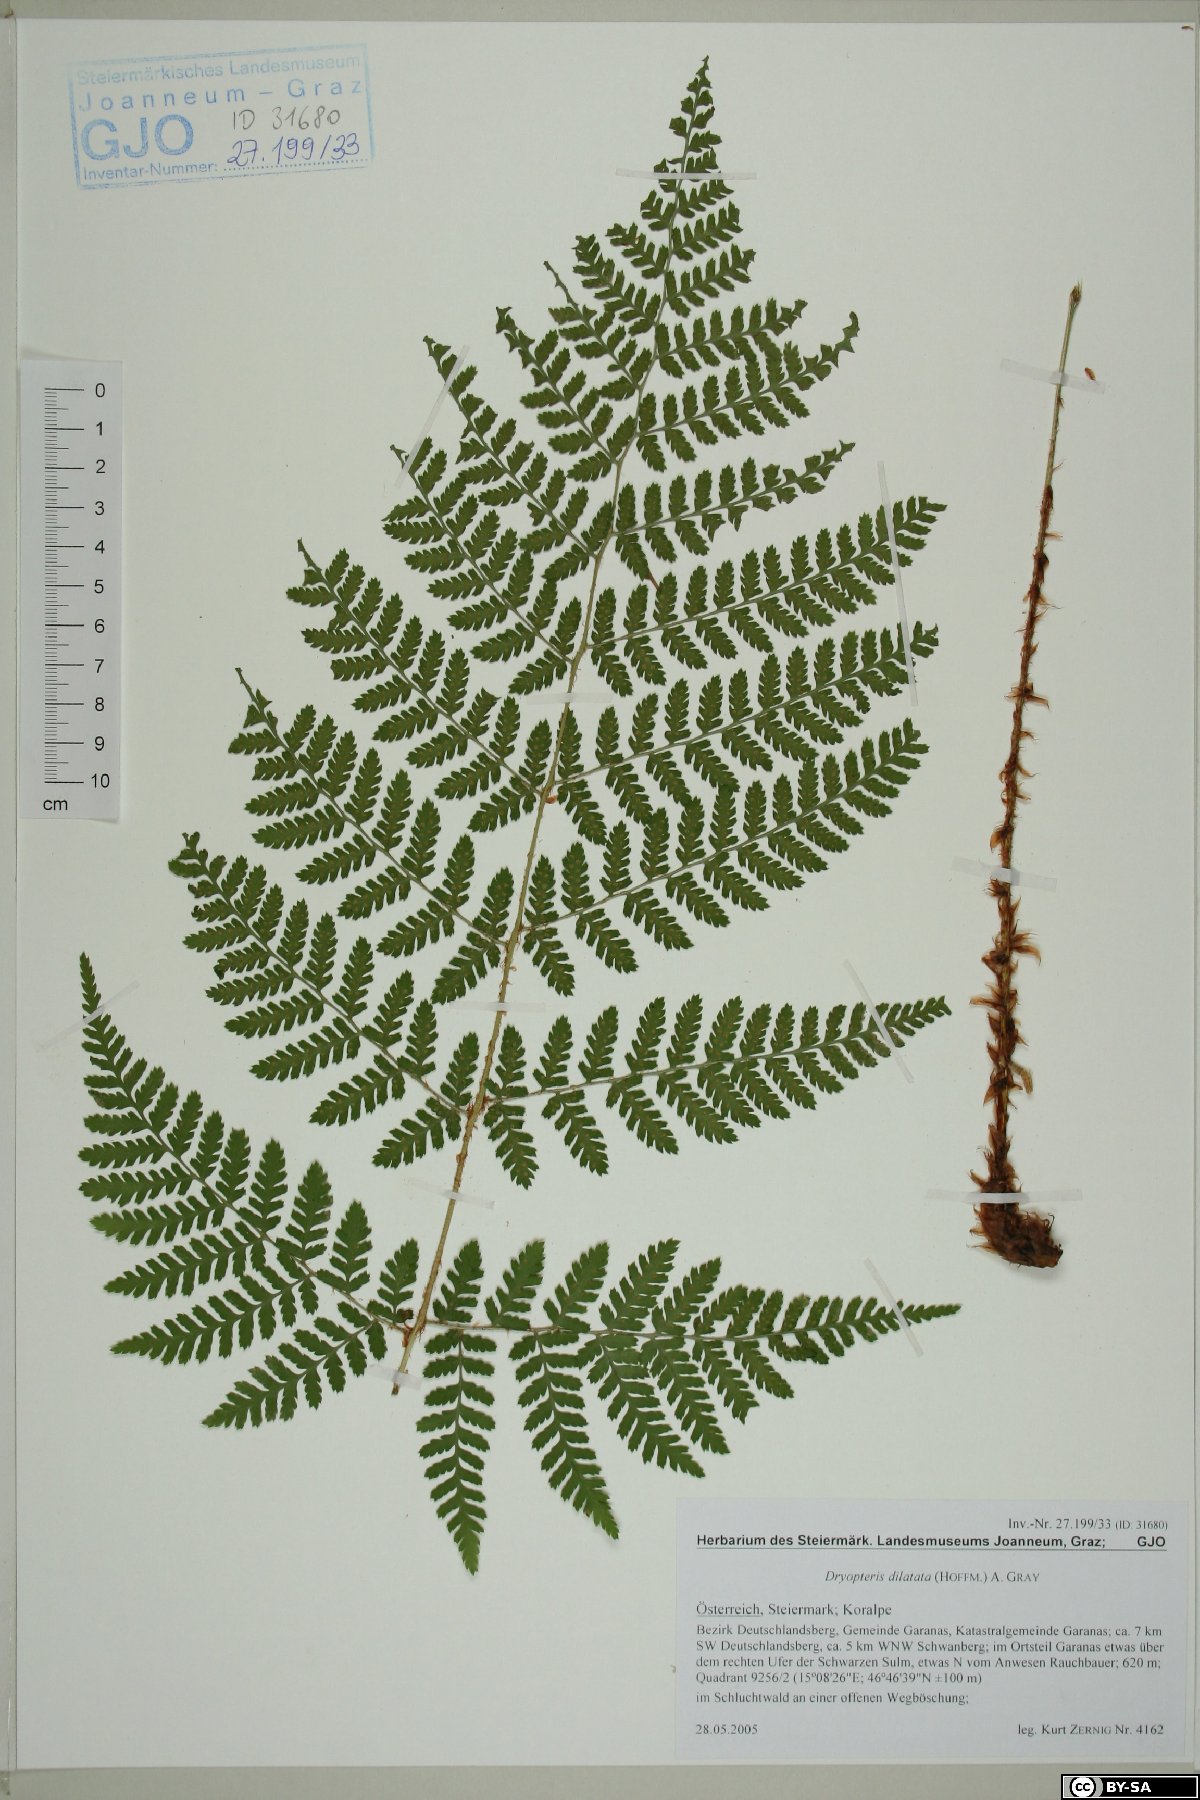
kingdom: Plantae
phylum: Tracheophyta
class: Polypodiopsida
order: Polypodiales
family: Dryopteridaceae
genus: Dryopteris
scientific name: Dryopteris dilatata
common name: Broad buckler-fern
